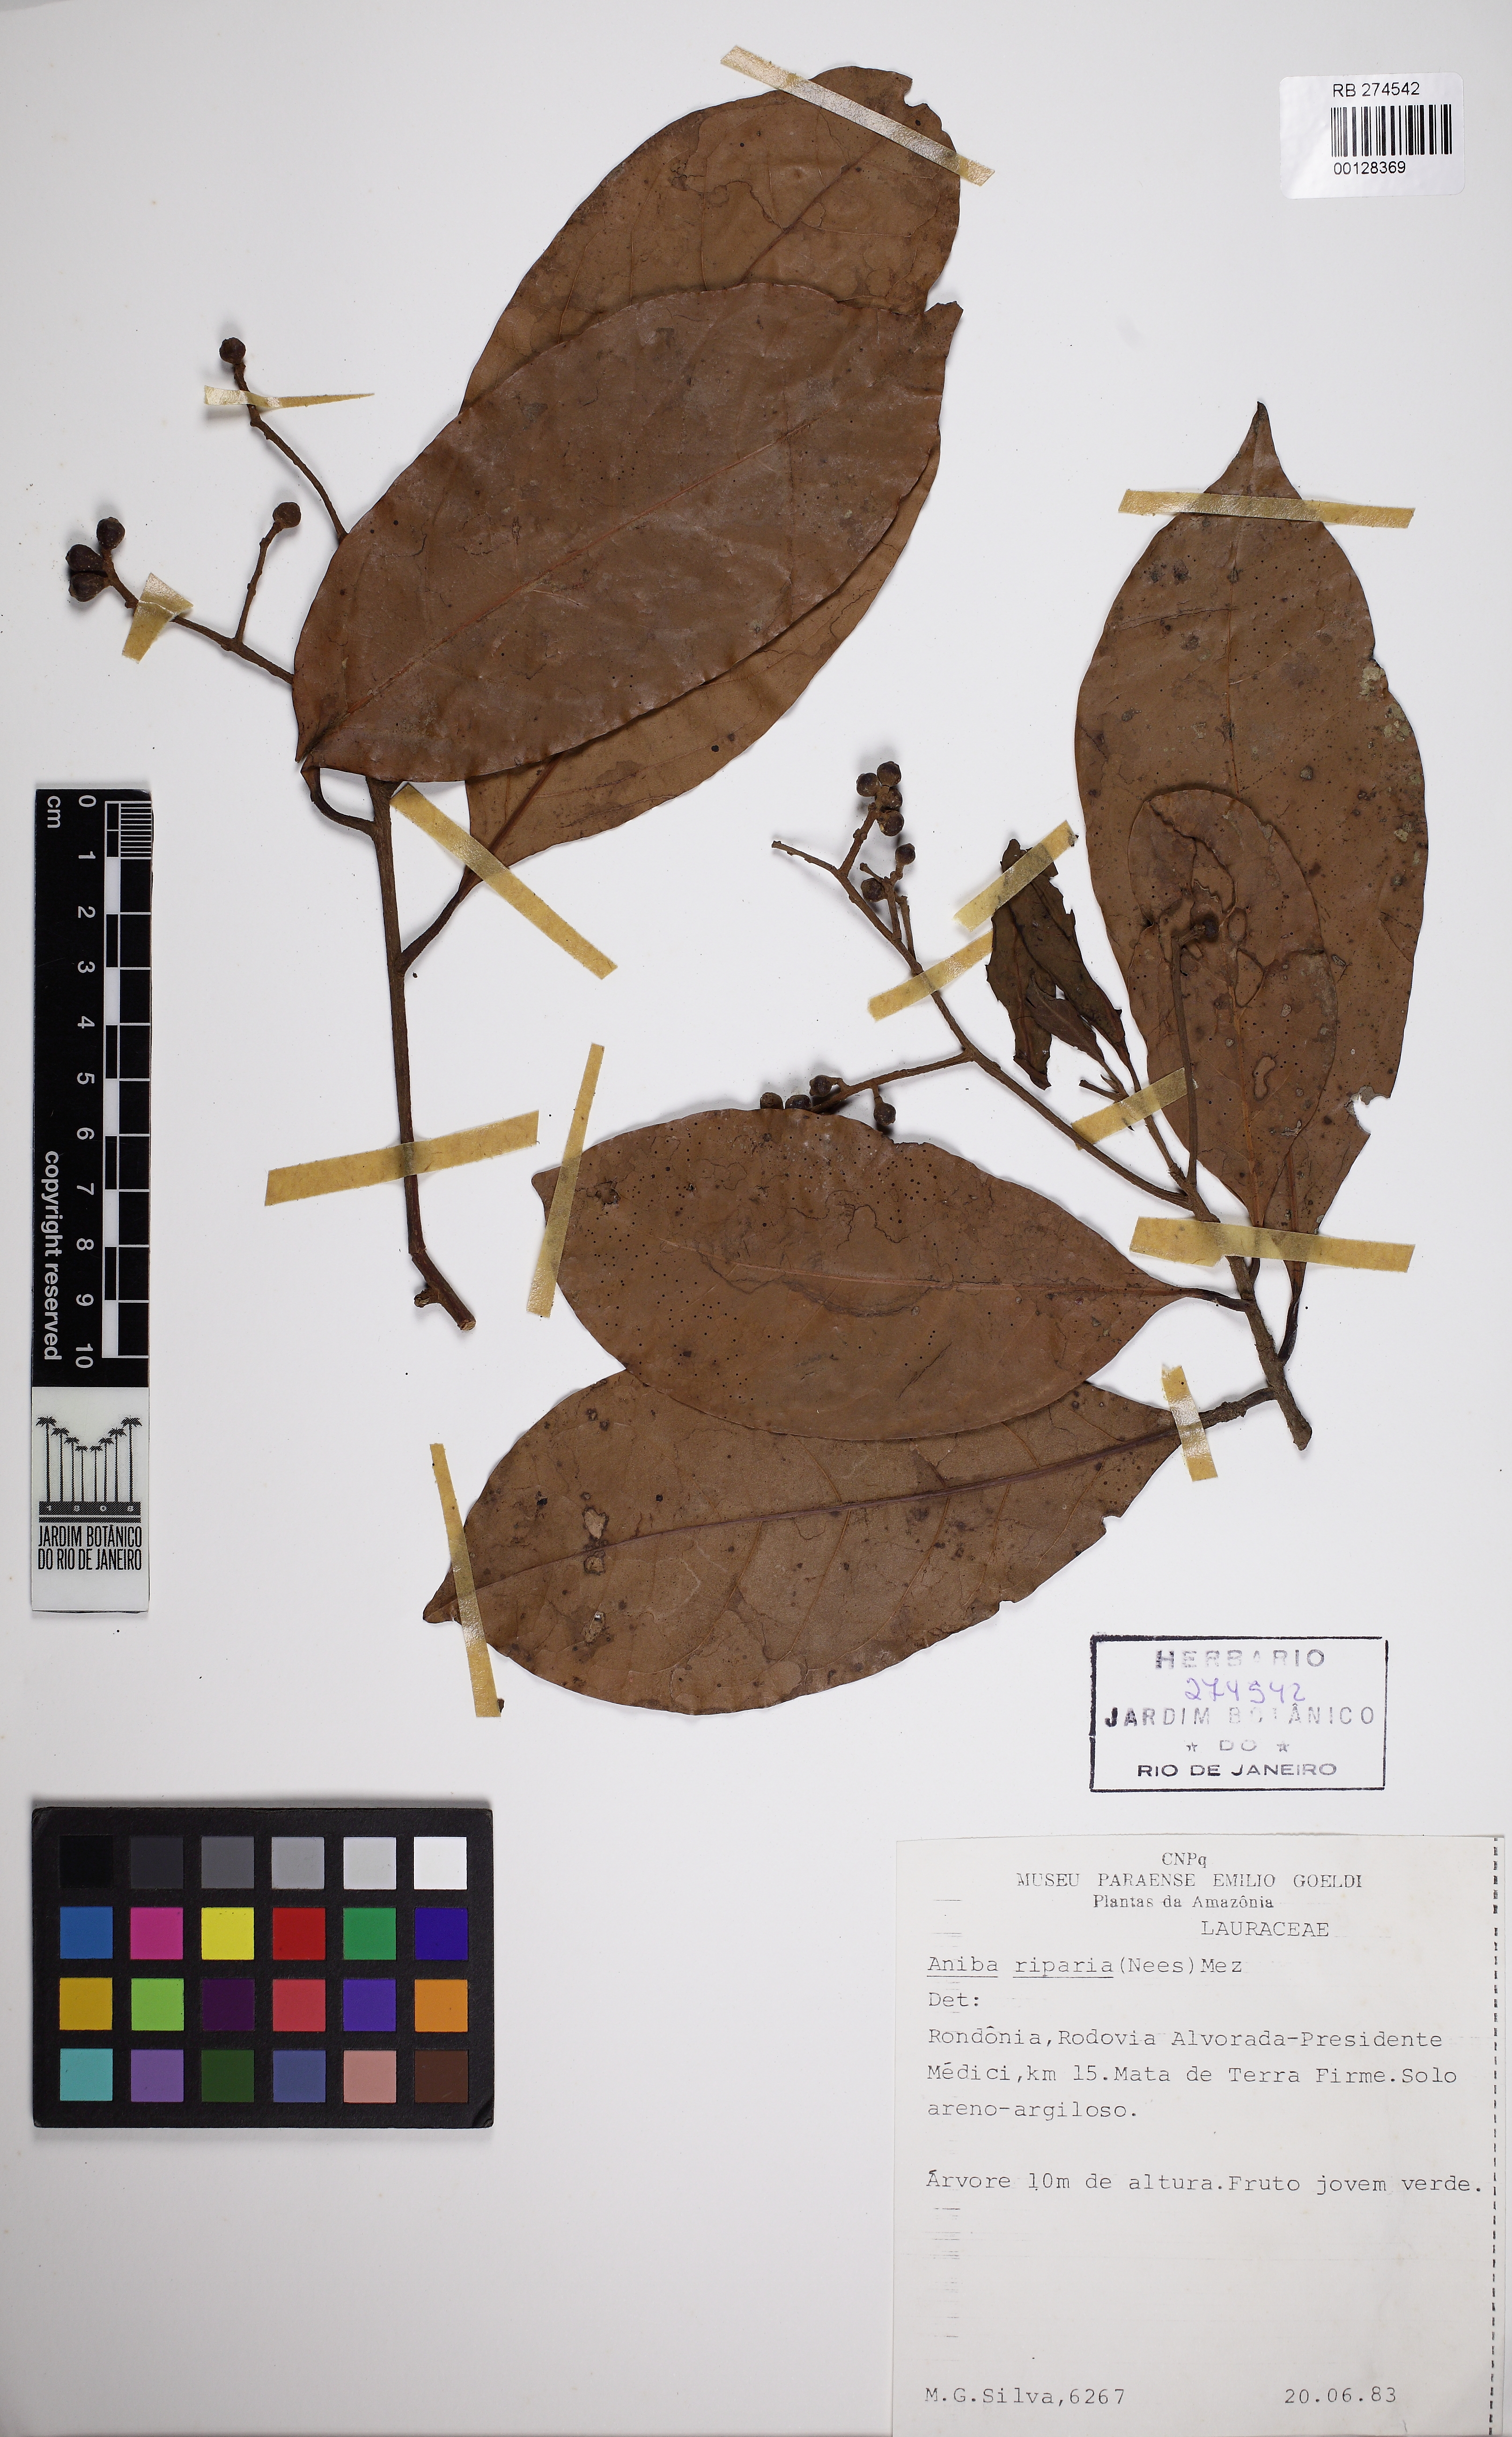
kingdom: Plantae
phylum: Tracheophyta
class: Magnoliopsida
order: Laurales
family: Lauraceae
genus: Aniba
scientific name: Aniba riparia
